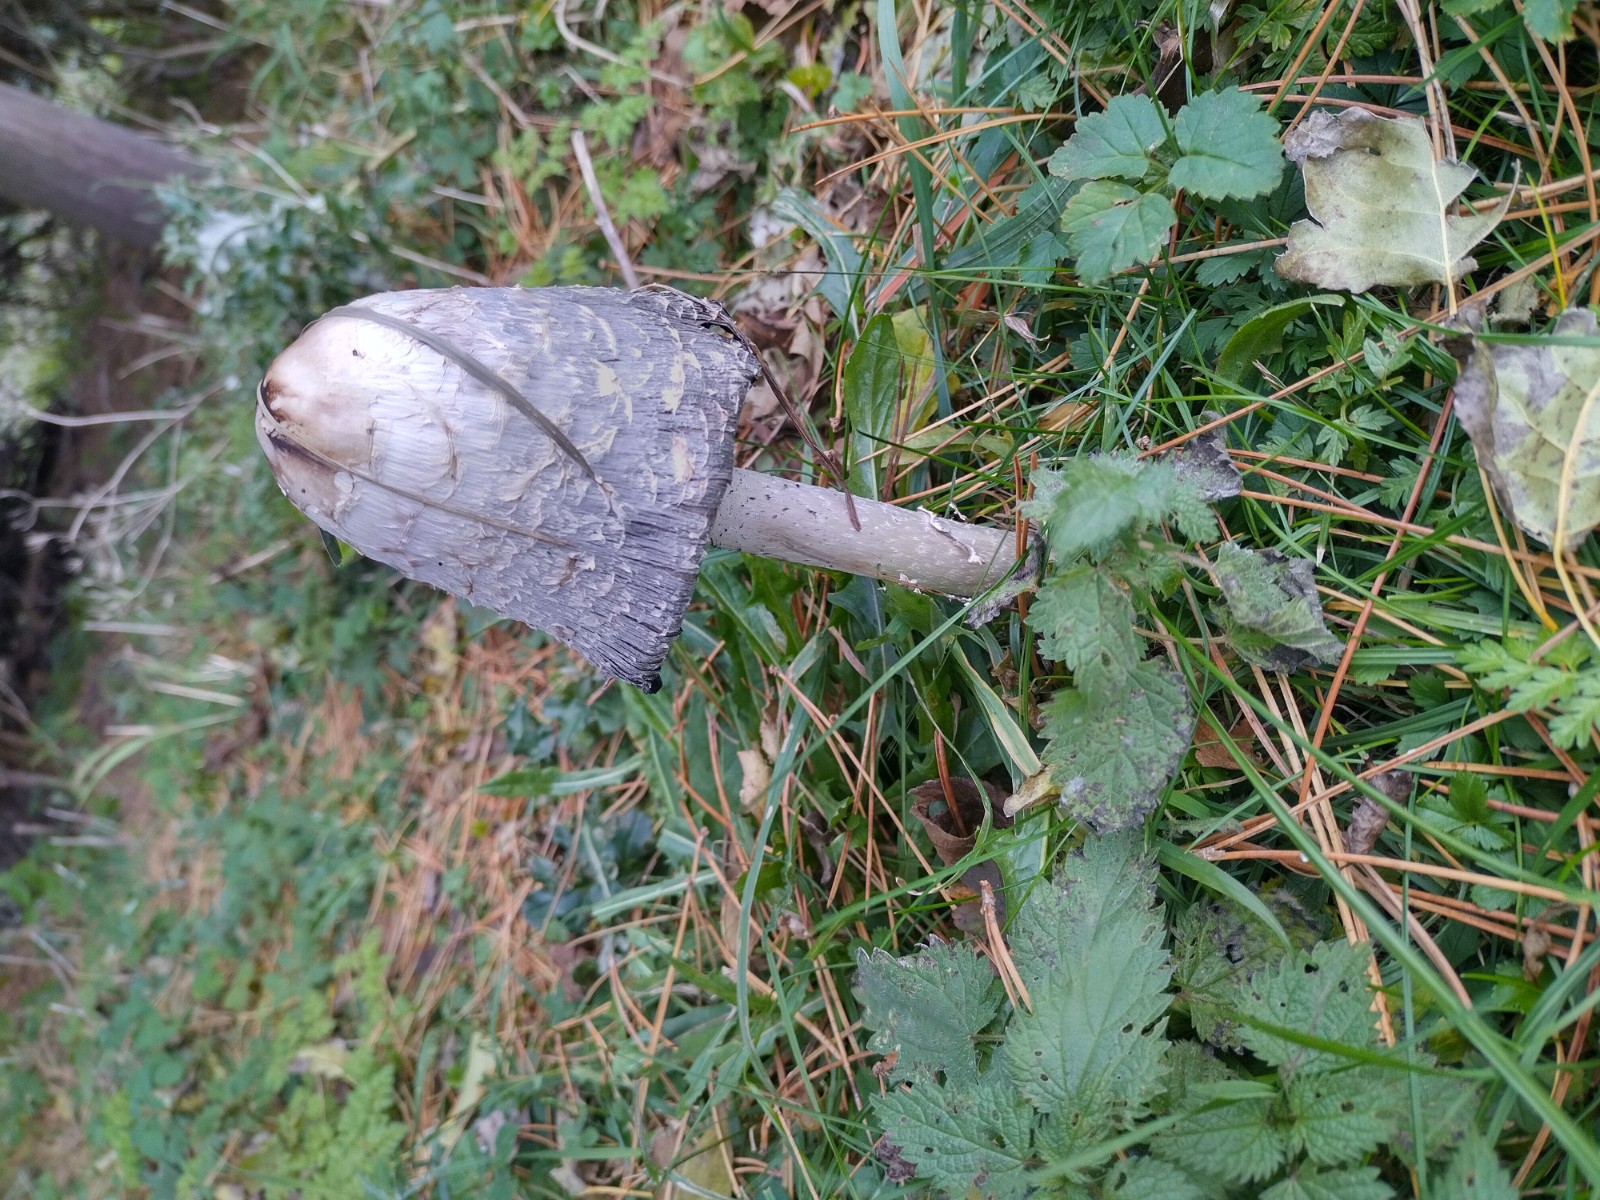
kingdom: Fungi
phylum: Basidiomycota
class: Agaricomycetes
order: Agaricales
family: Agaricaceae
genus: Coprinus
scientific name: Coprinus comatus
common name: stor parykhat
